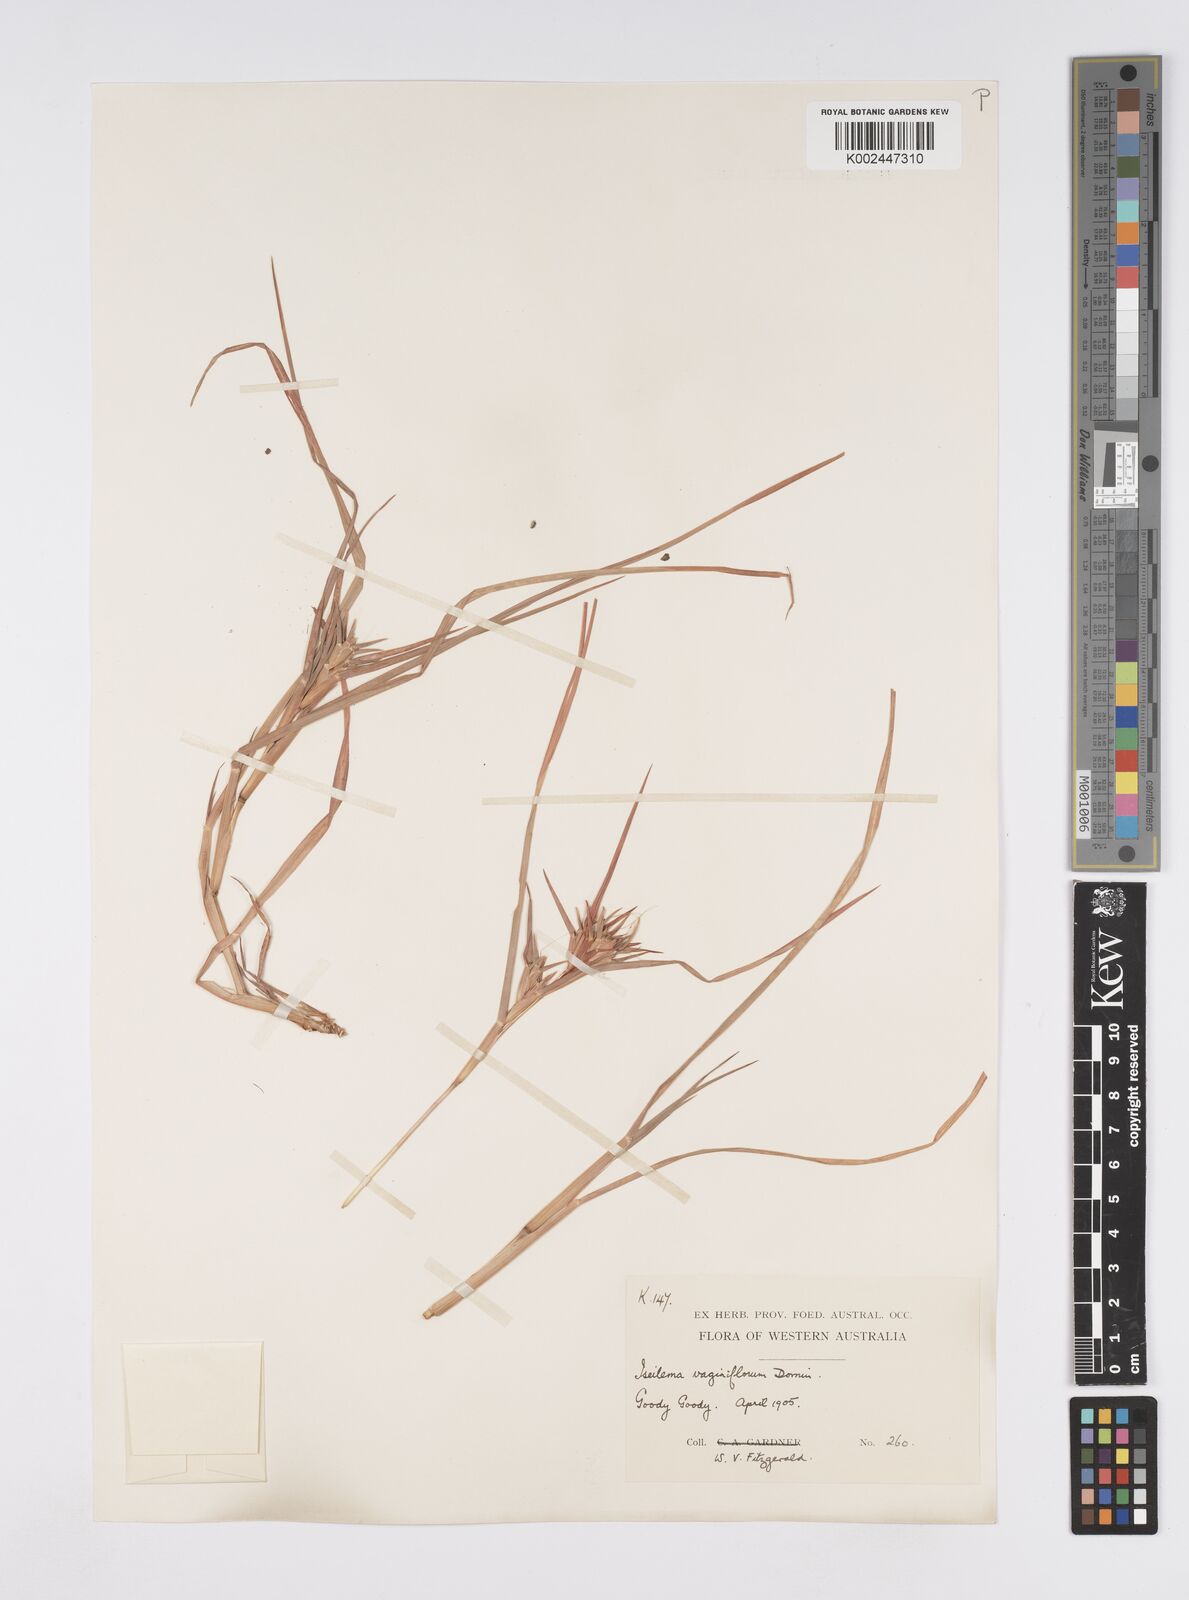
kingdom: Plantae
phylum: Tracheophyta
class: Liliopsida
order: Poales
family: Poaceae
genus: Iseilema
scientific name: Iseilema vaginiflorum
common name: Red flinders grass
